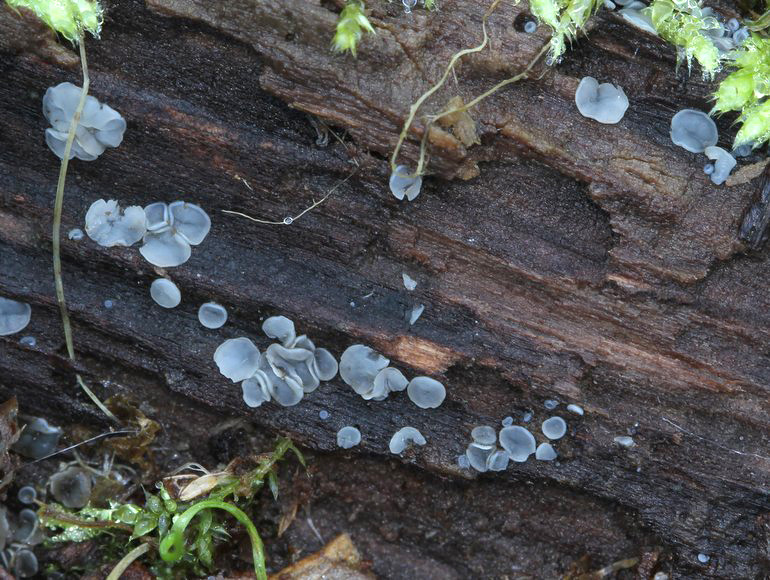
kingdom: Fungi
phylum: Ascomycota
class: Leotiomycetes
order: Helotiales
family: Mollisiaceae
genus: Mollisia
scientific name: Mollisia cinerea
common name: almindelig gråskive
